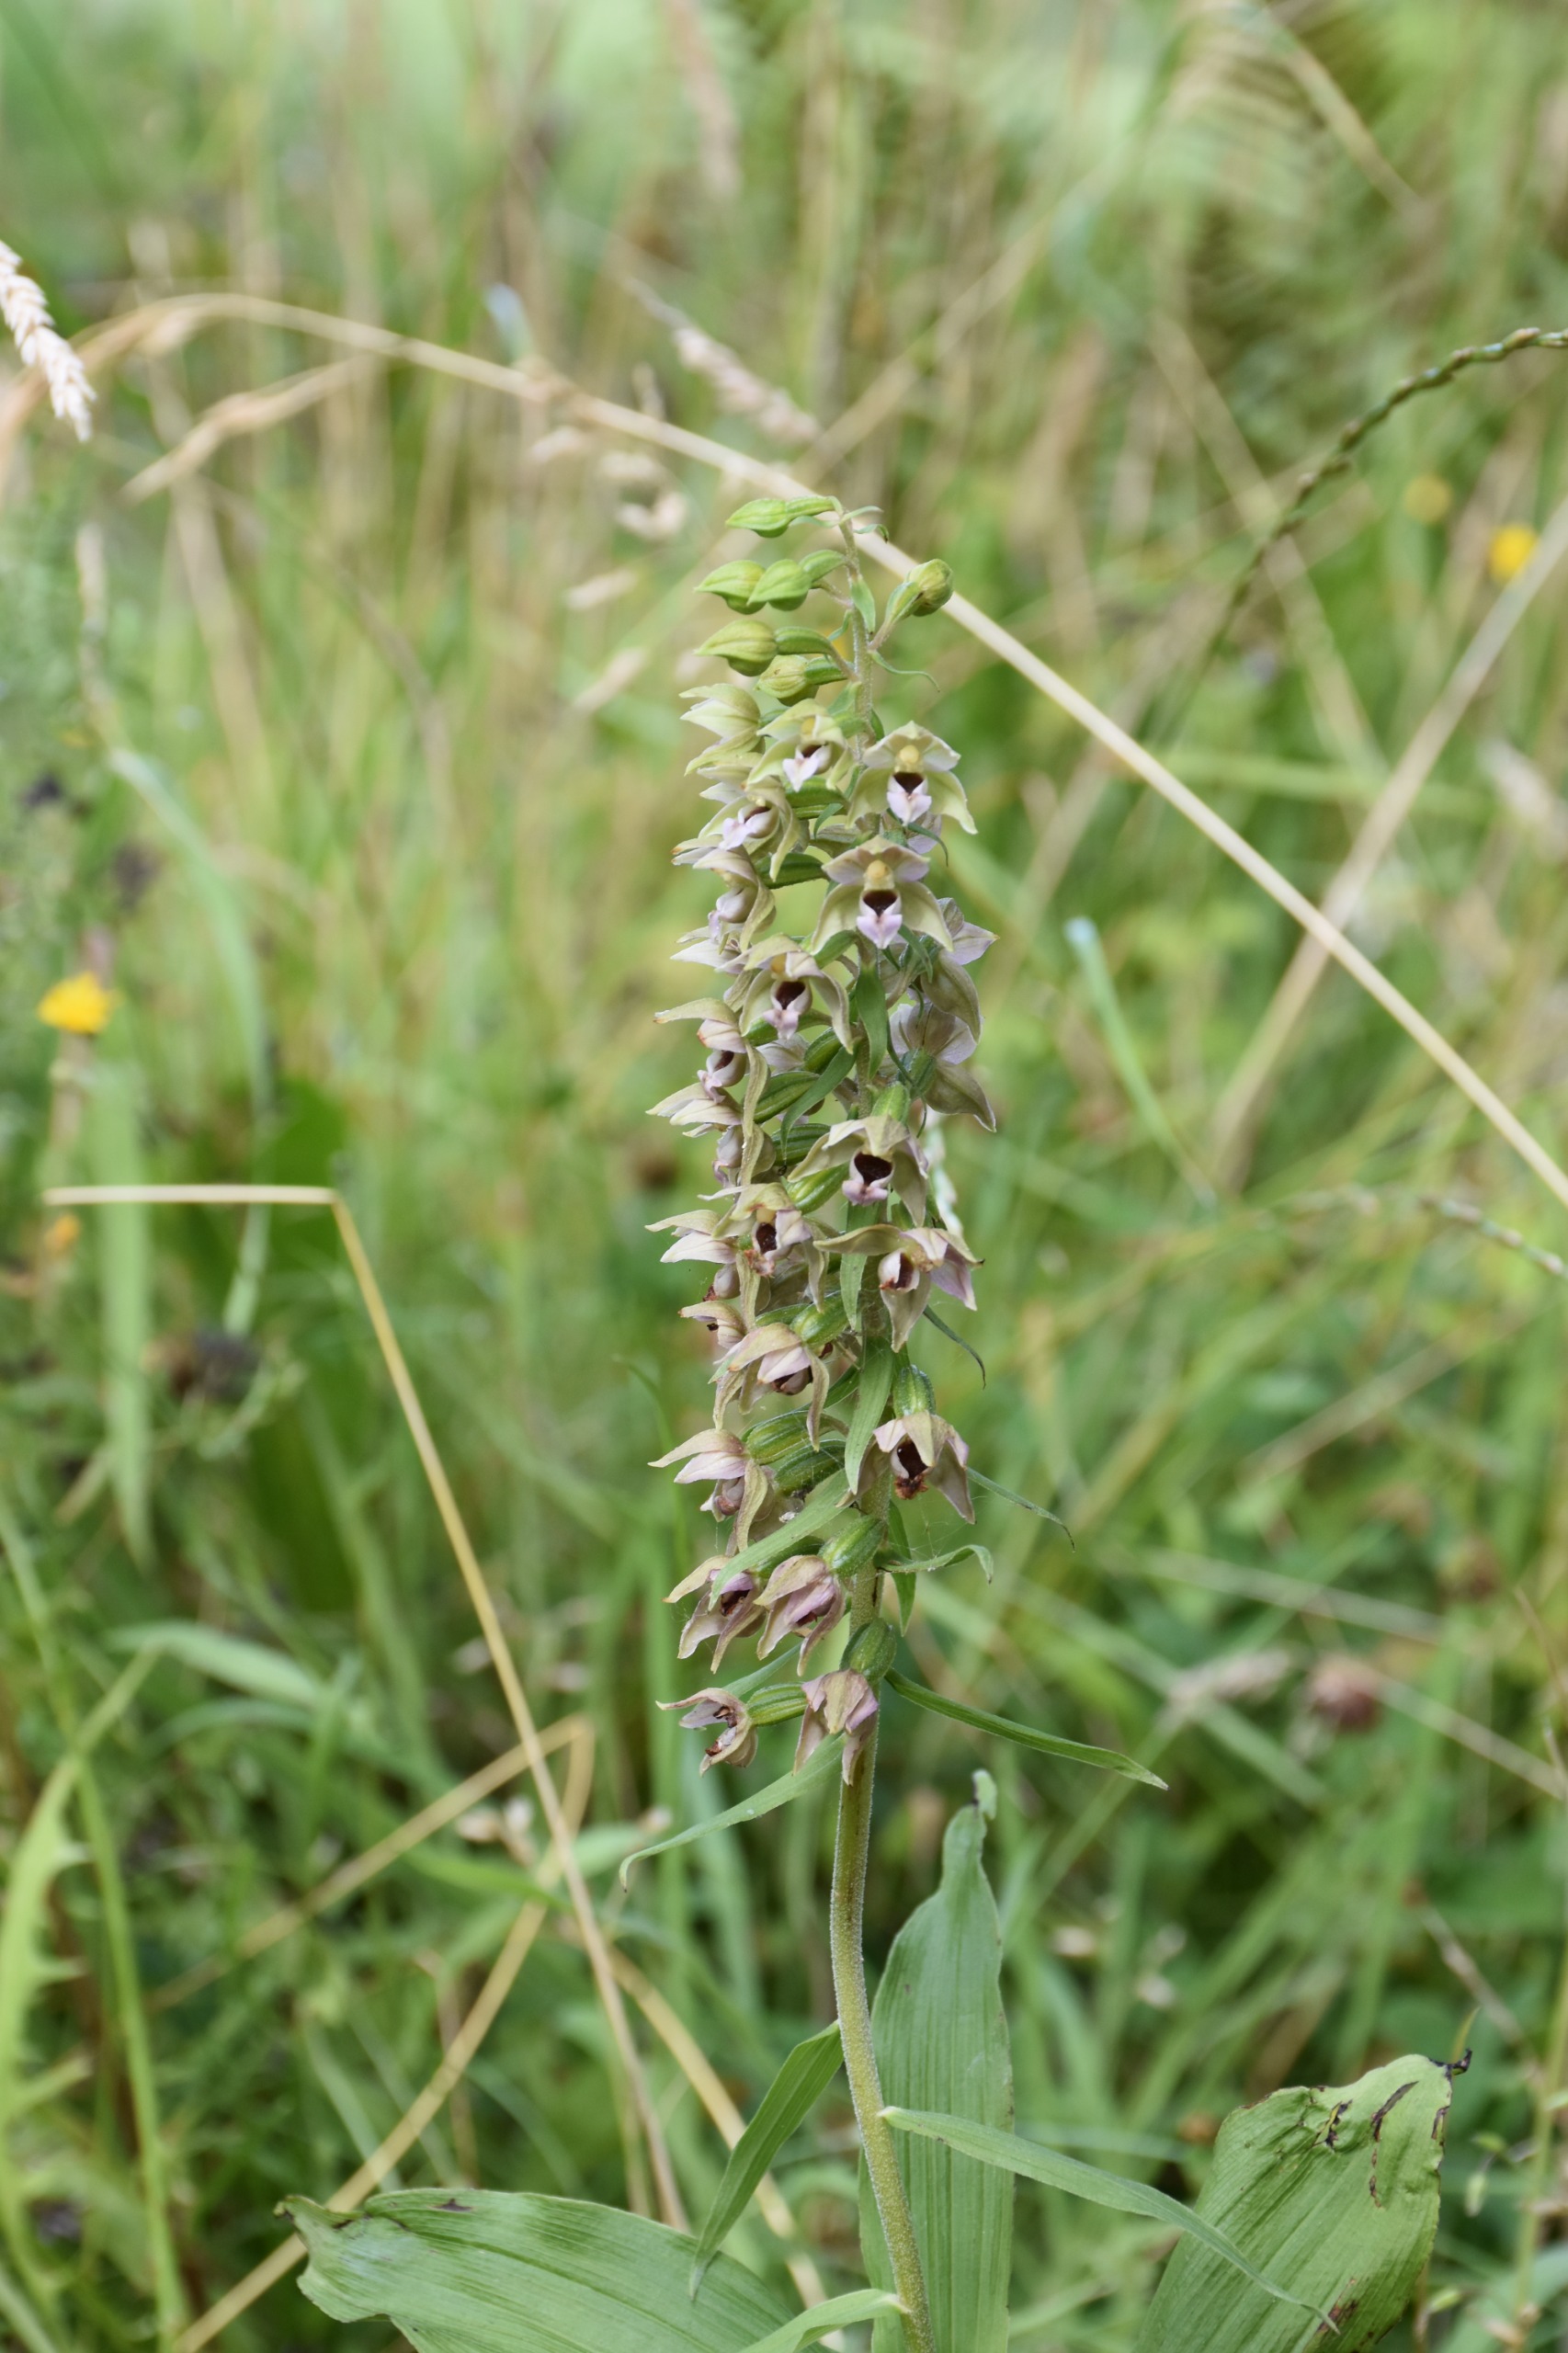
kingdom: Plantae
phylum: Tracheophyta
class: Liliopsida
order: Asparagales
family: Orchidaceae
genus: Epipactis
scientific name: Epipactis helleborine
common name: Skov-hullæbe (underart)
